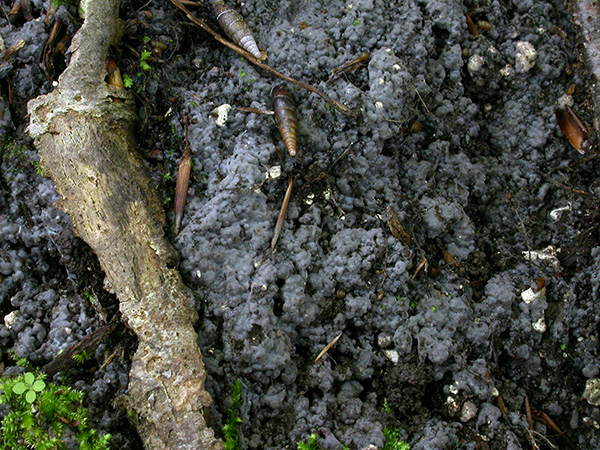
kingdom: Fungi
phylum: Basidiomycota
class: Agaricomycetes
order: Sebacinales
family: Sebacinaceae
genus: Sebacina
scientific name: Sebacina
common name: bævretalg
